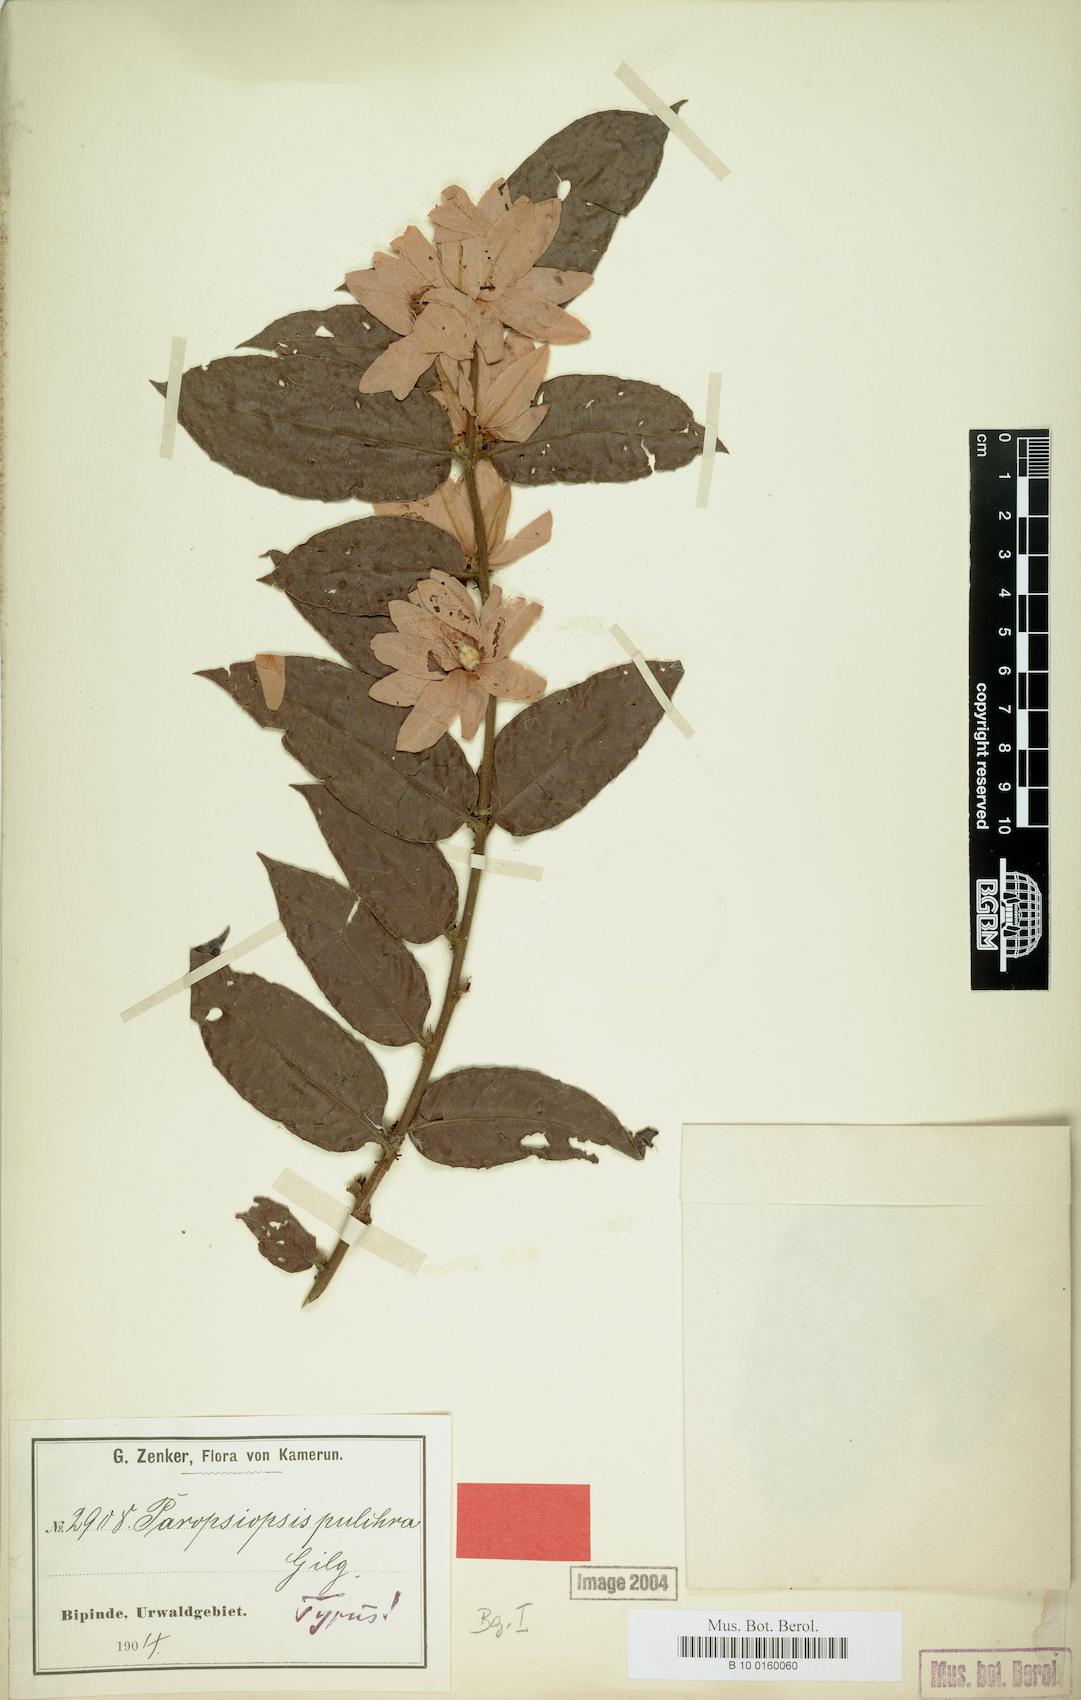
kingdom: Plantae
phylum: Tracheophyta
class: Magnoliopsida
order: Malpighiales
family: Passifloraceae
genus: Paropsiopsis
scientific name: Paropsiopsis pulchra
